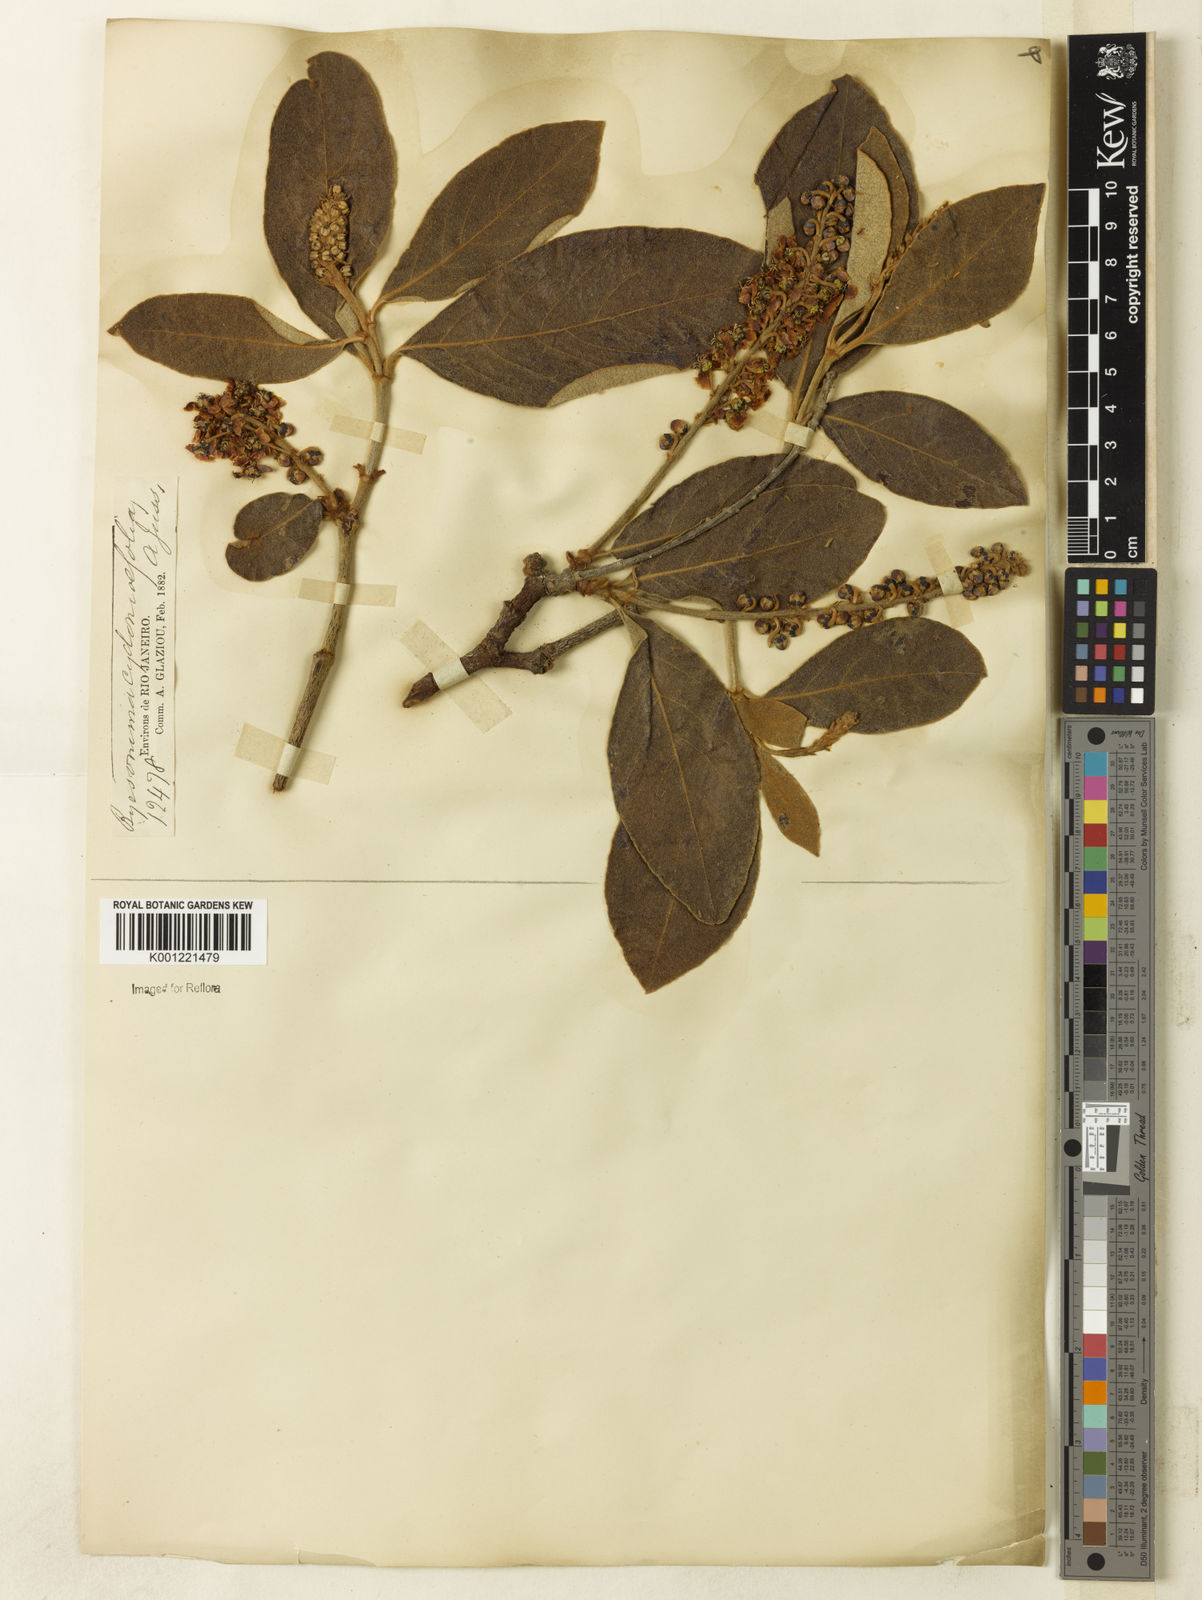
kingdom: Plantae
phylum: Tracheophyta
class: Magnoliopsida
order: Malpighiales
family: Malpighiaceae
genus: Byrsonima
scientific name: Byrsonima cydoniifolia
